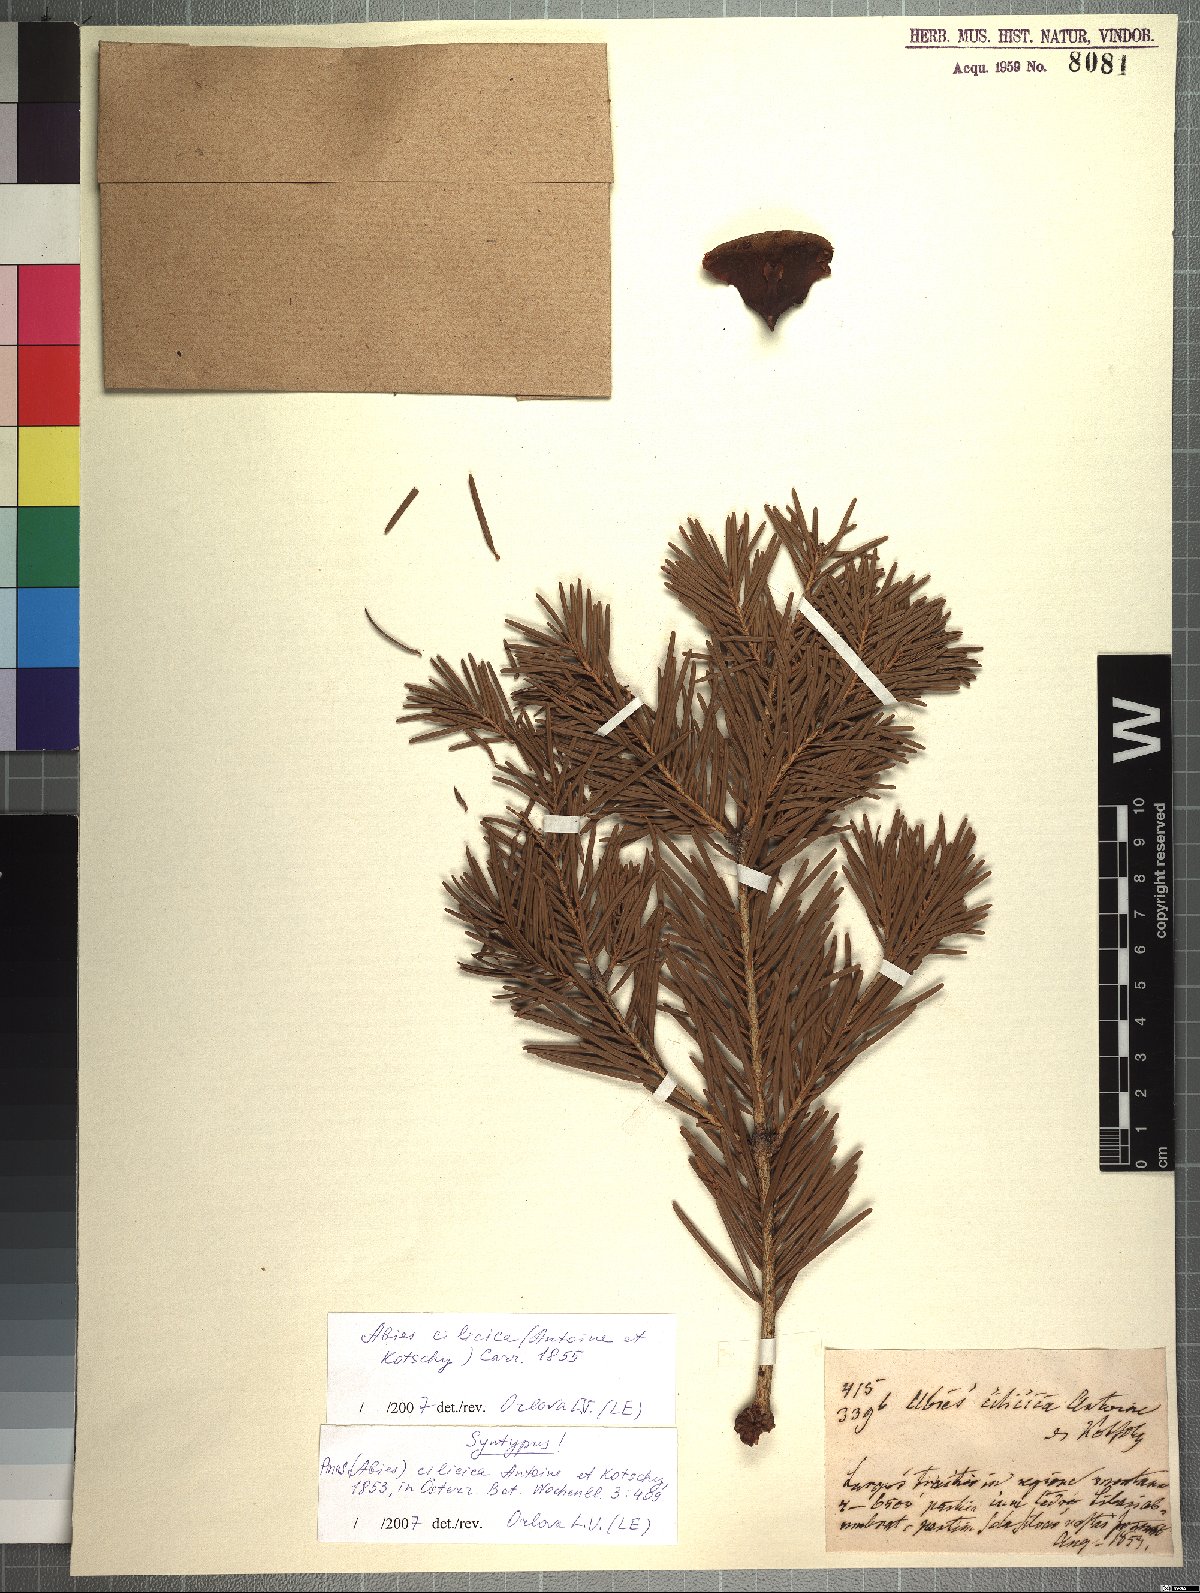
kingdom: Plantae
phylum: Tracheophyta
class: Pinopsida
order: Pinales
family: Pinaceae
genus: Abies
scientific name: Abies cilicica
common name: Cilician fir
